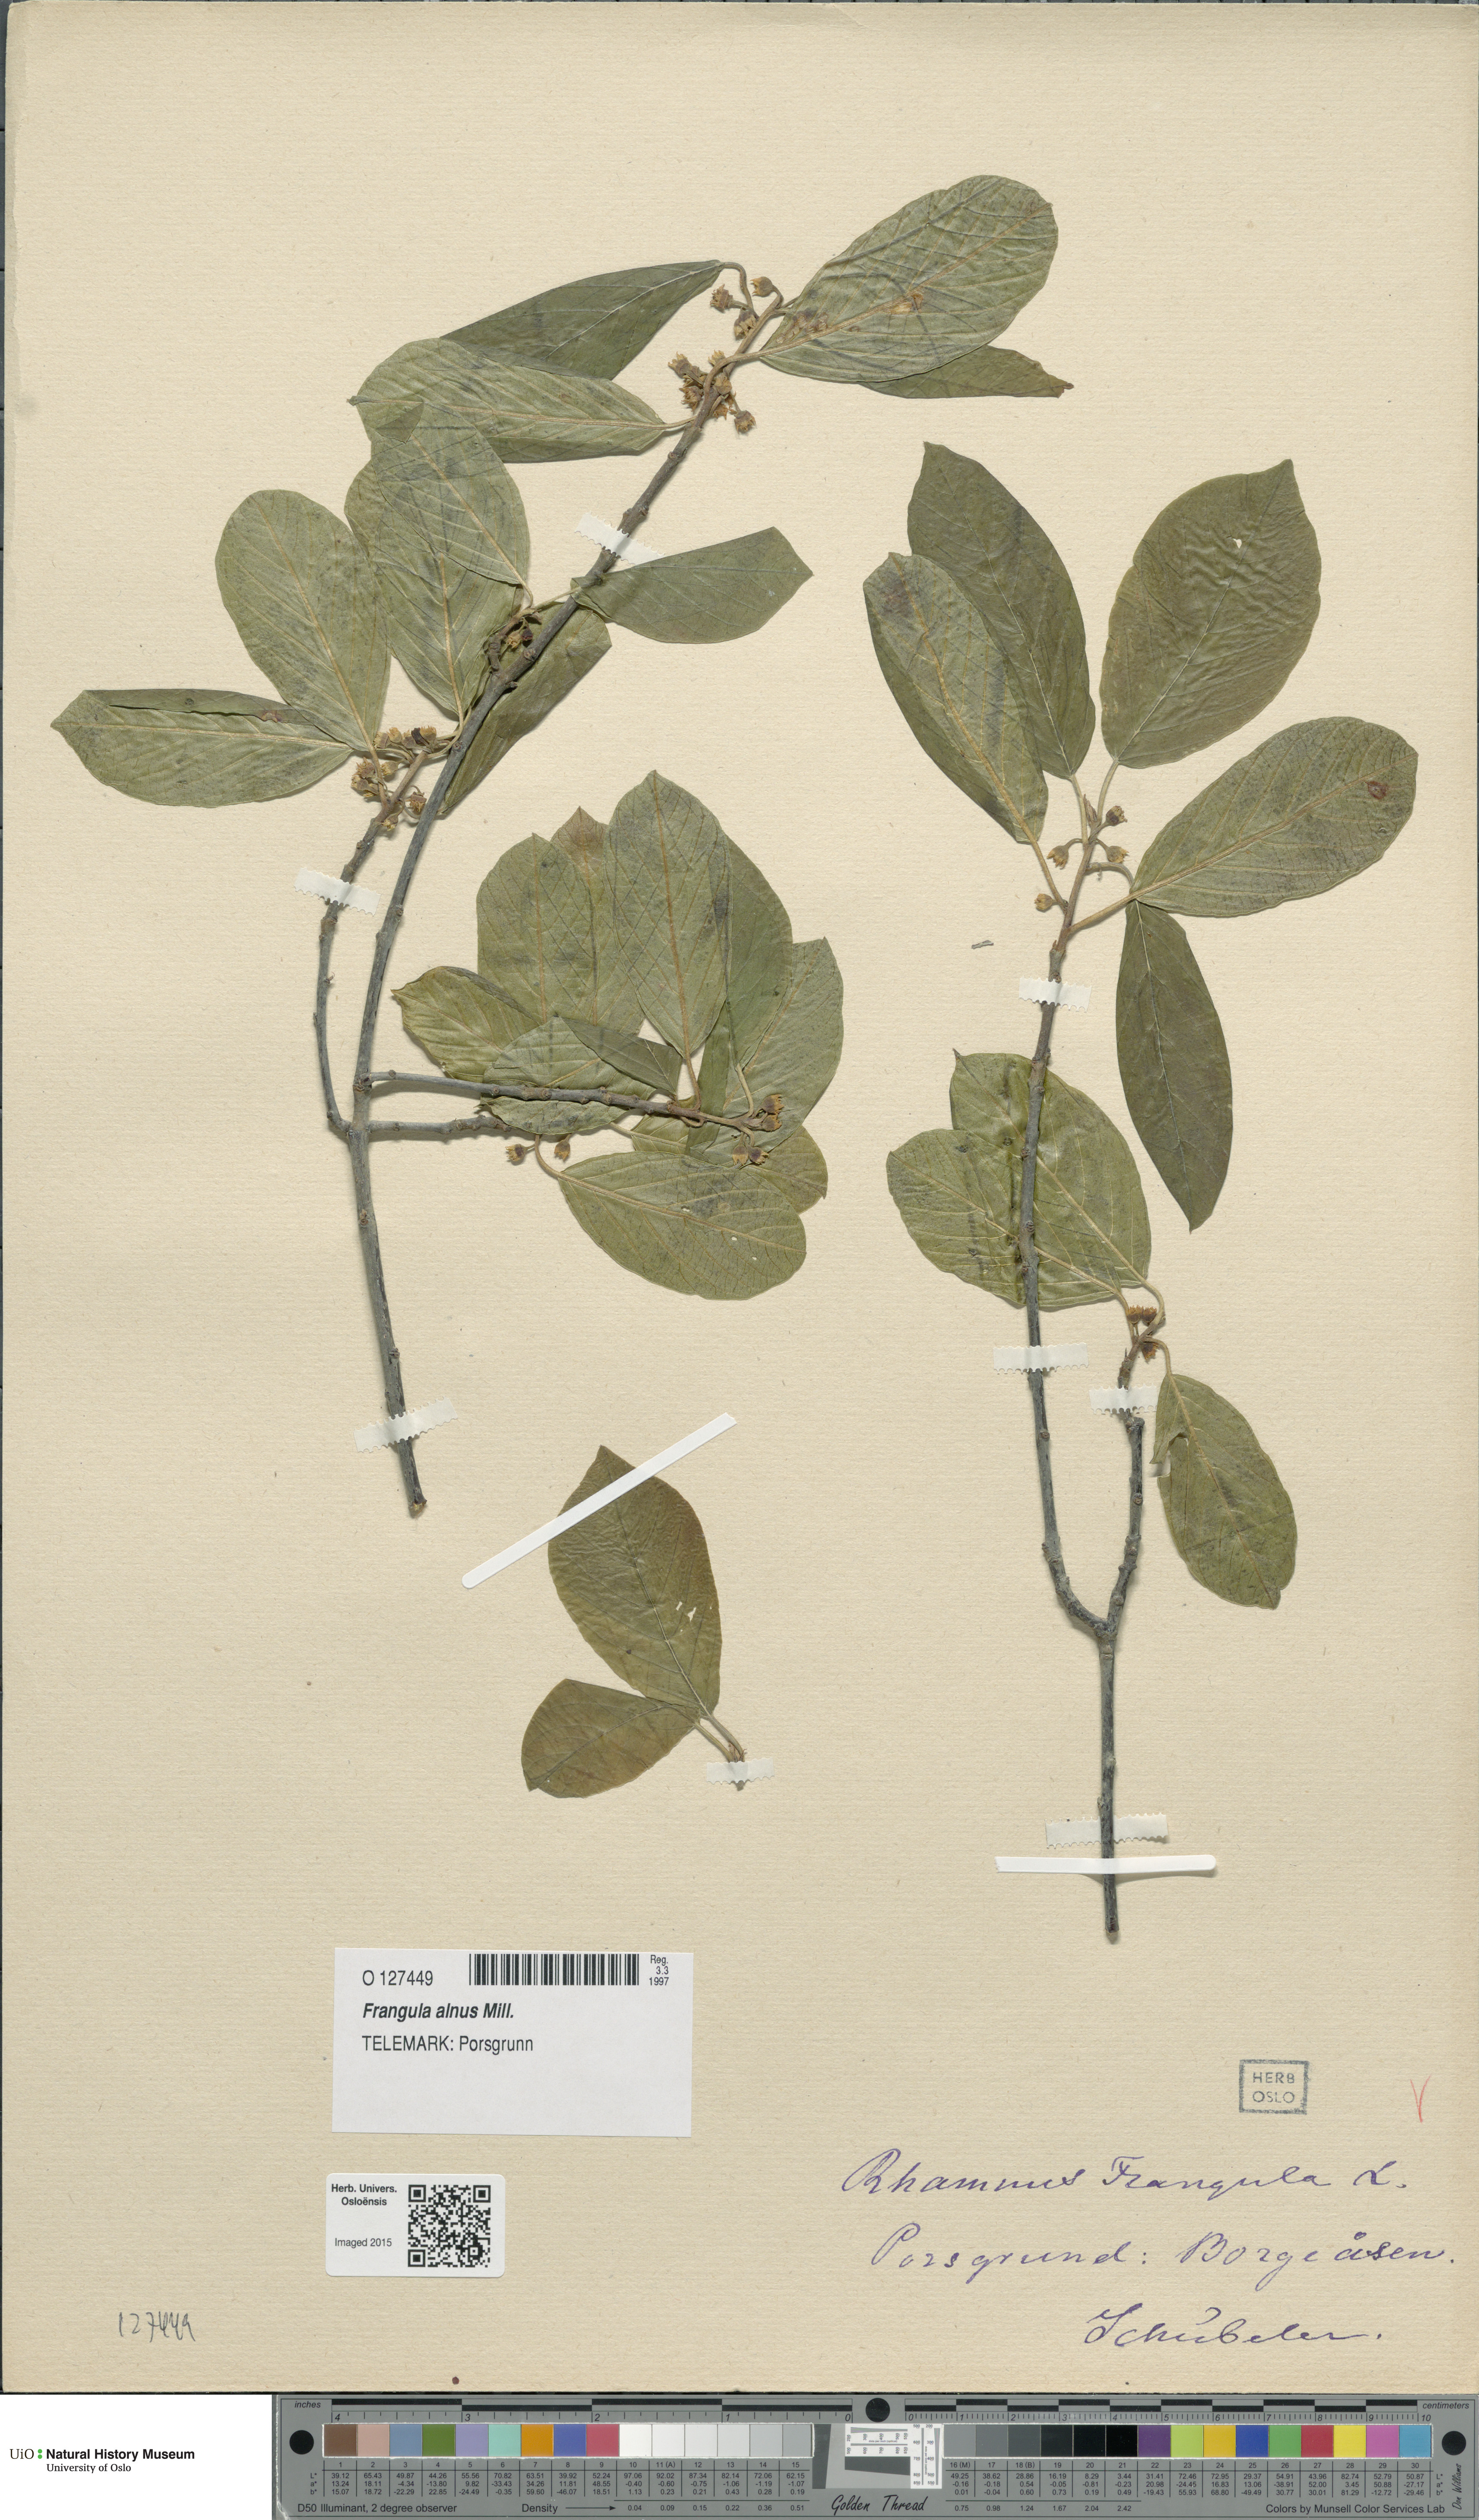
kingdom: Plantae
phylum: Tracheophyta
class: Magnoliopsida
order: Rosales
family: Rhamnaceae
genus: Frangula
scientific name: Frangula alnus
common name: Alder buckthorn
